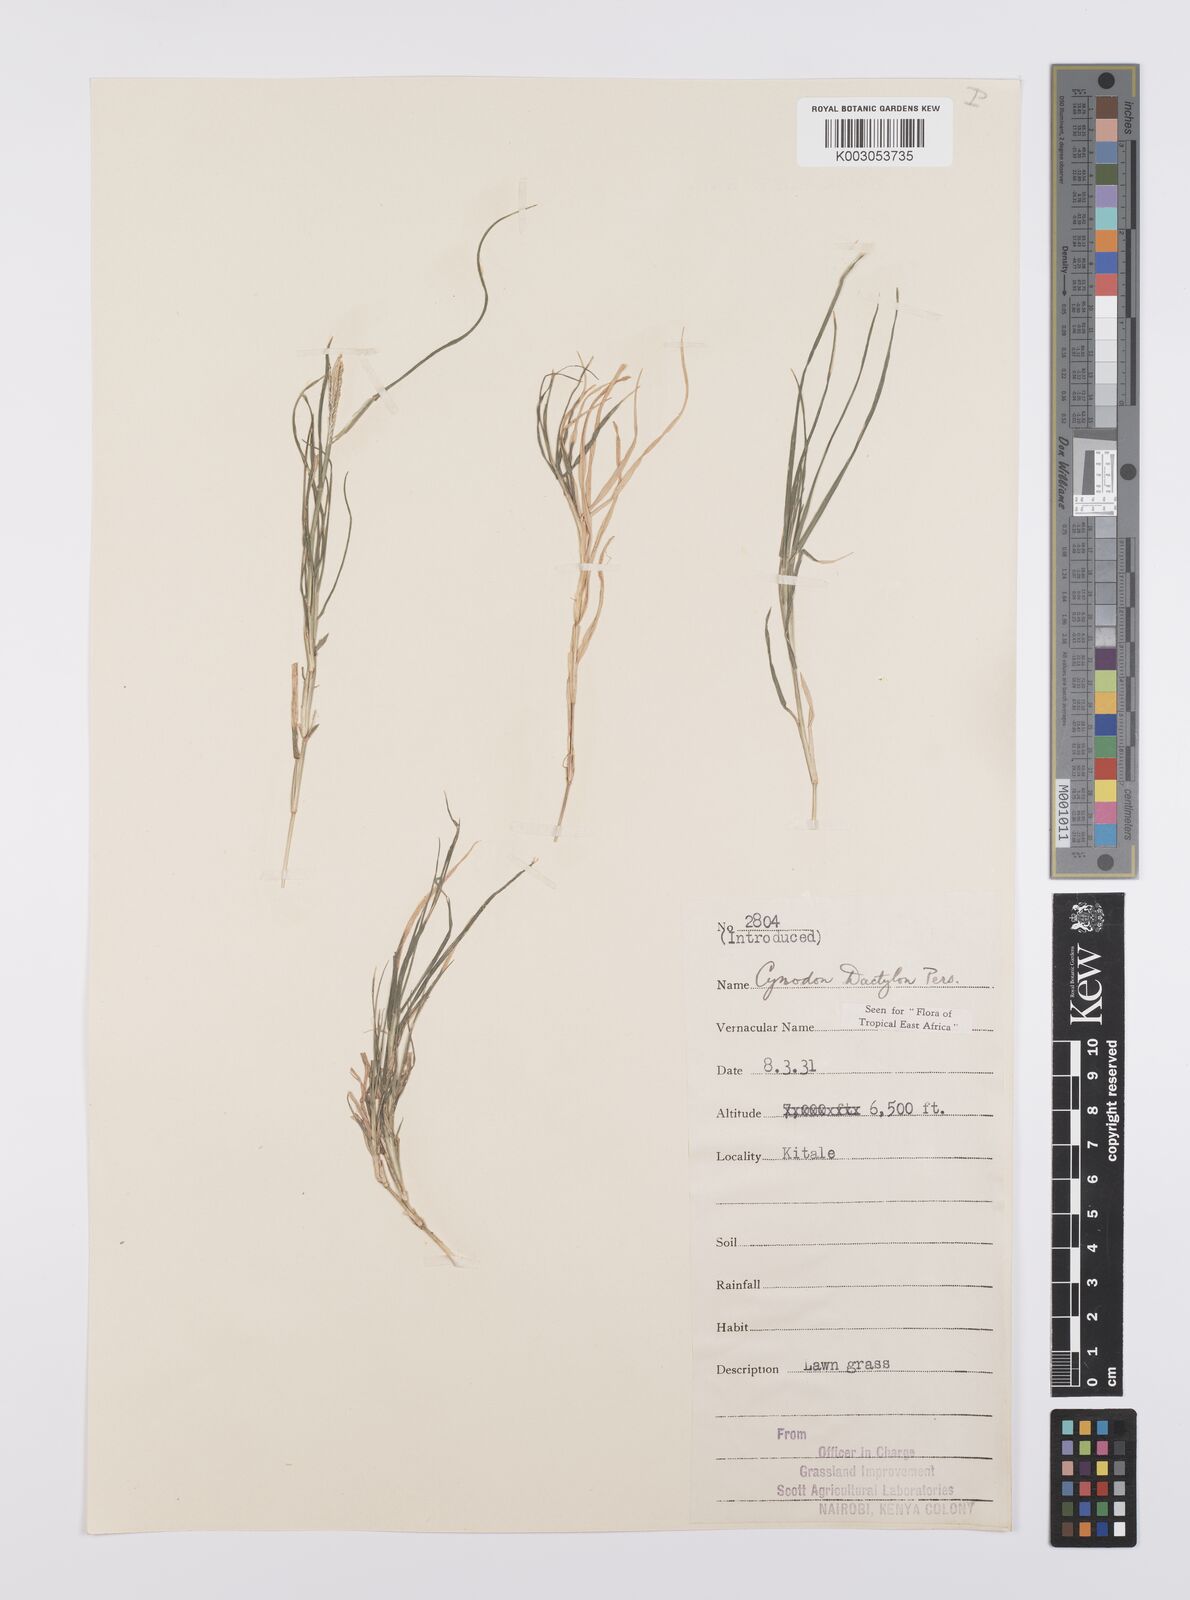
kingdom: Plantae
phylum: Tracheophyta
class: Liliopsida
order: Poales
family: Poaceae
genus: Cynodon
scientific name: Cynodon dactylon
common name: Bermuda grass
